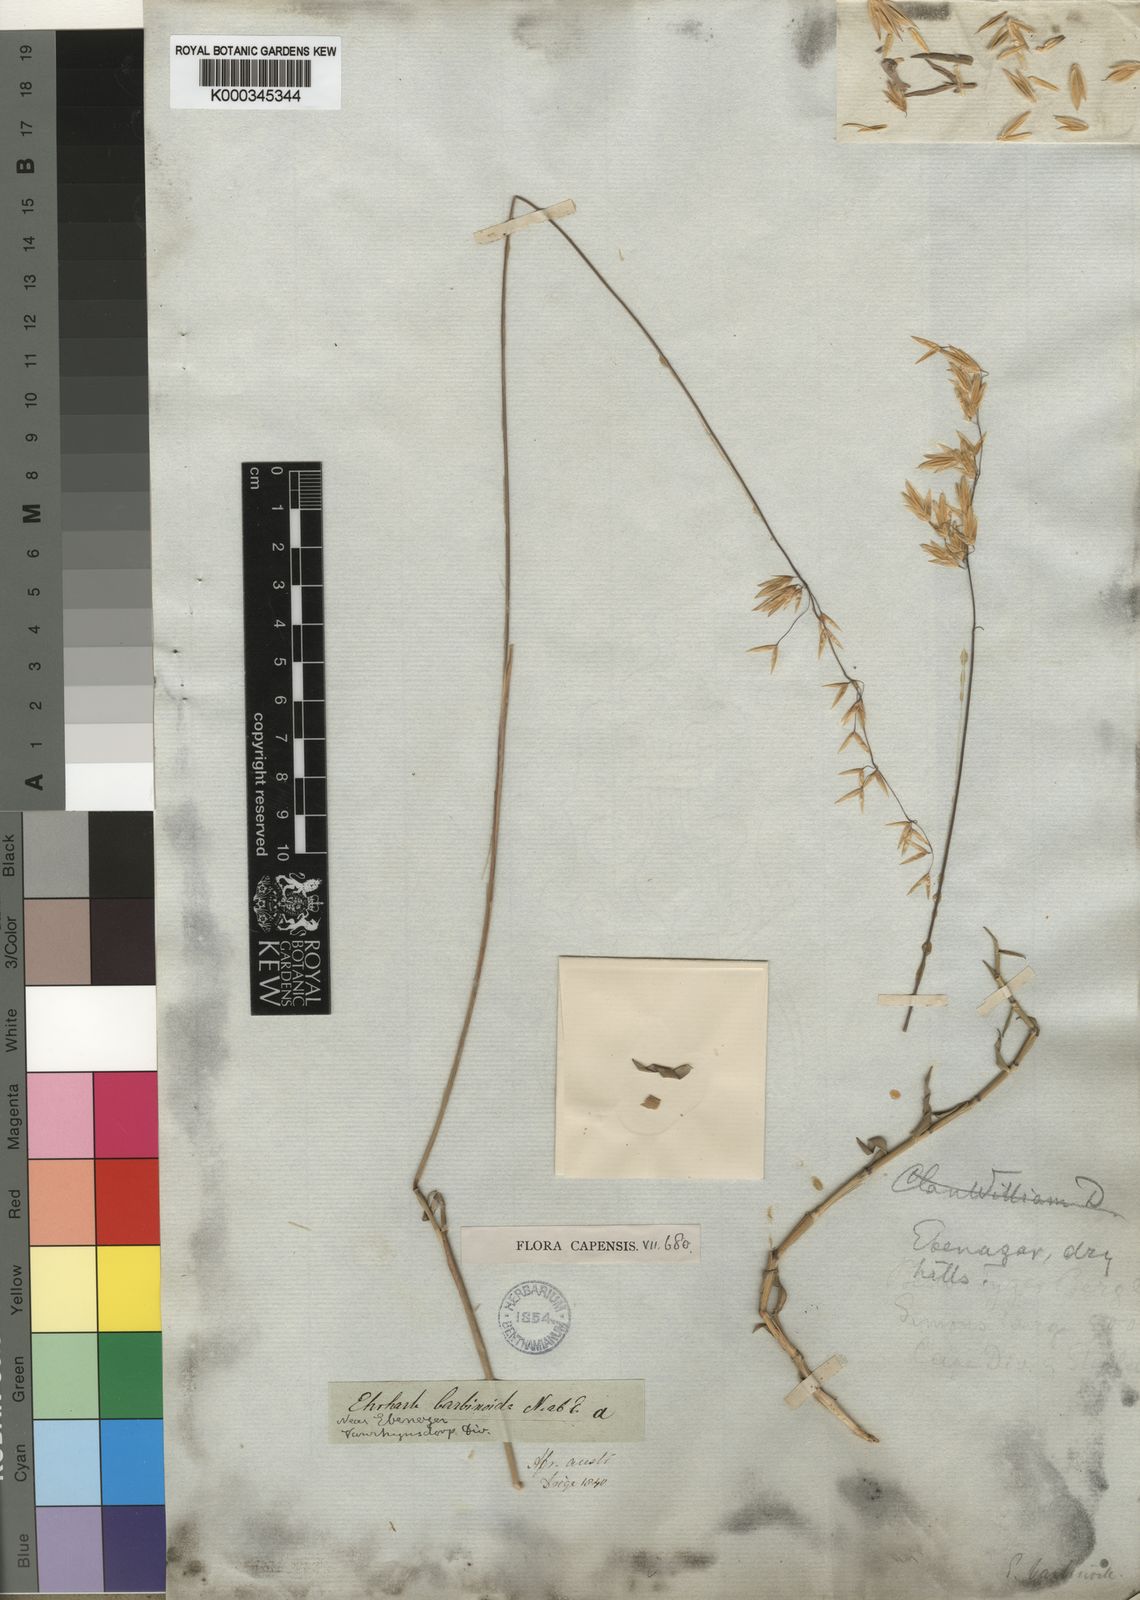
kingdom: Plantae
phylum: Tracheophyta
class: Liliopsida
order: Poales
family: Poaceae
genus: Ehrharta
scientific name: Ehrharta barbinodis
